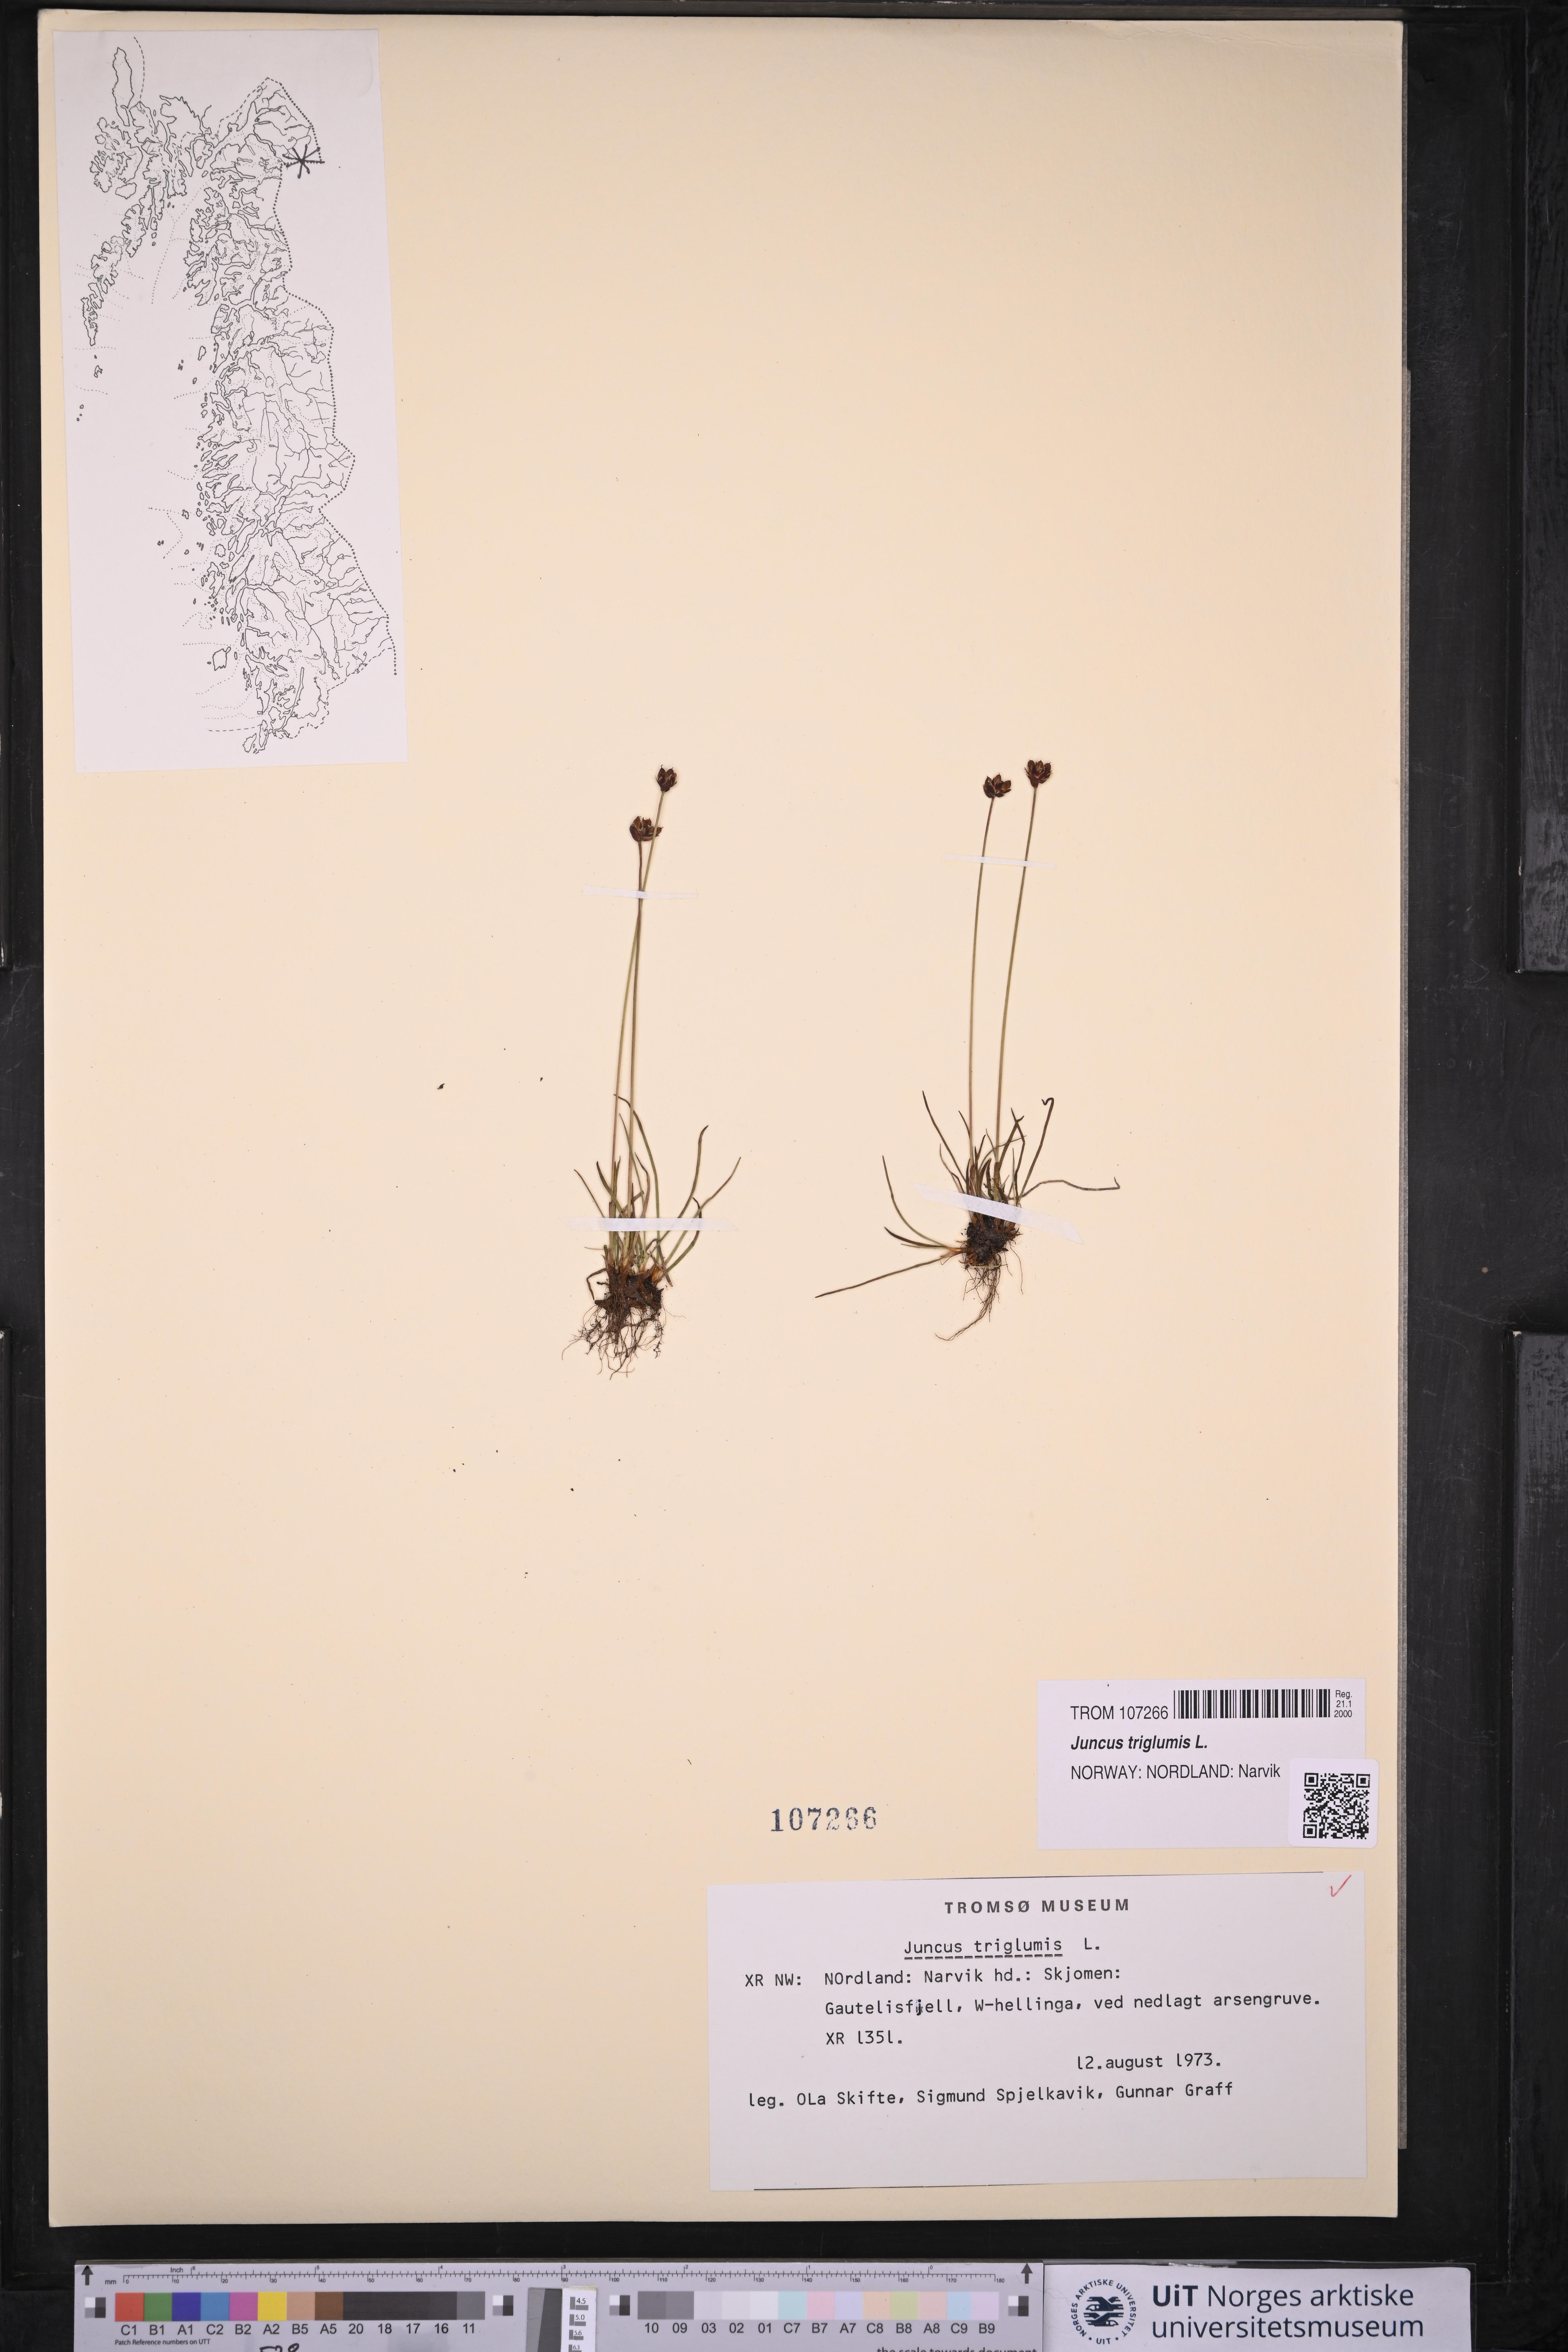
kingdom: Plantae
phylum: Tracheophyta
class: Liliopsida
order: Poales
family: Juncaceae
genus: Juncus
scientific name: Juncus triglumis
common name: Three-flowered rush
